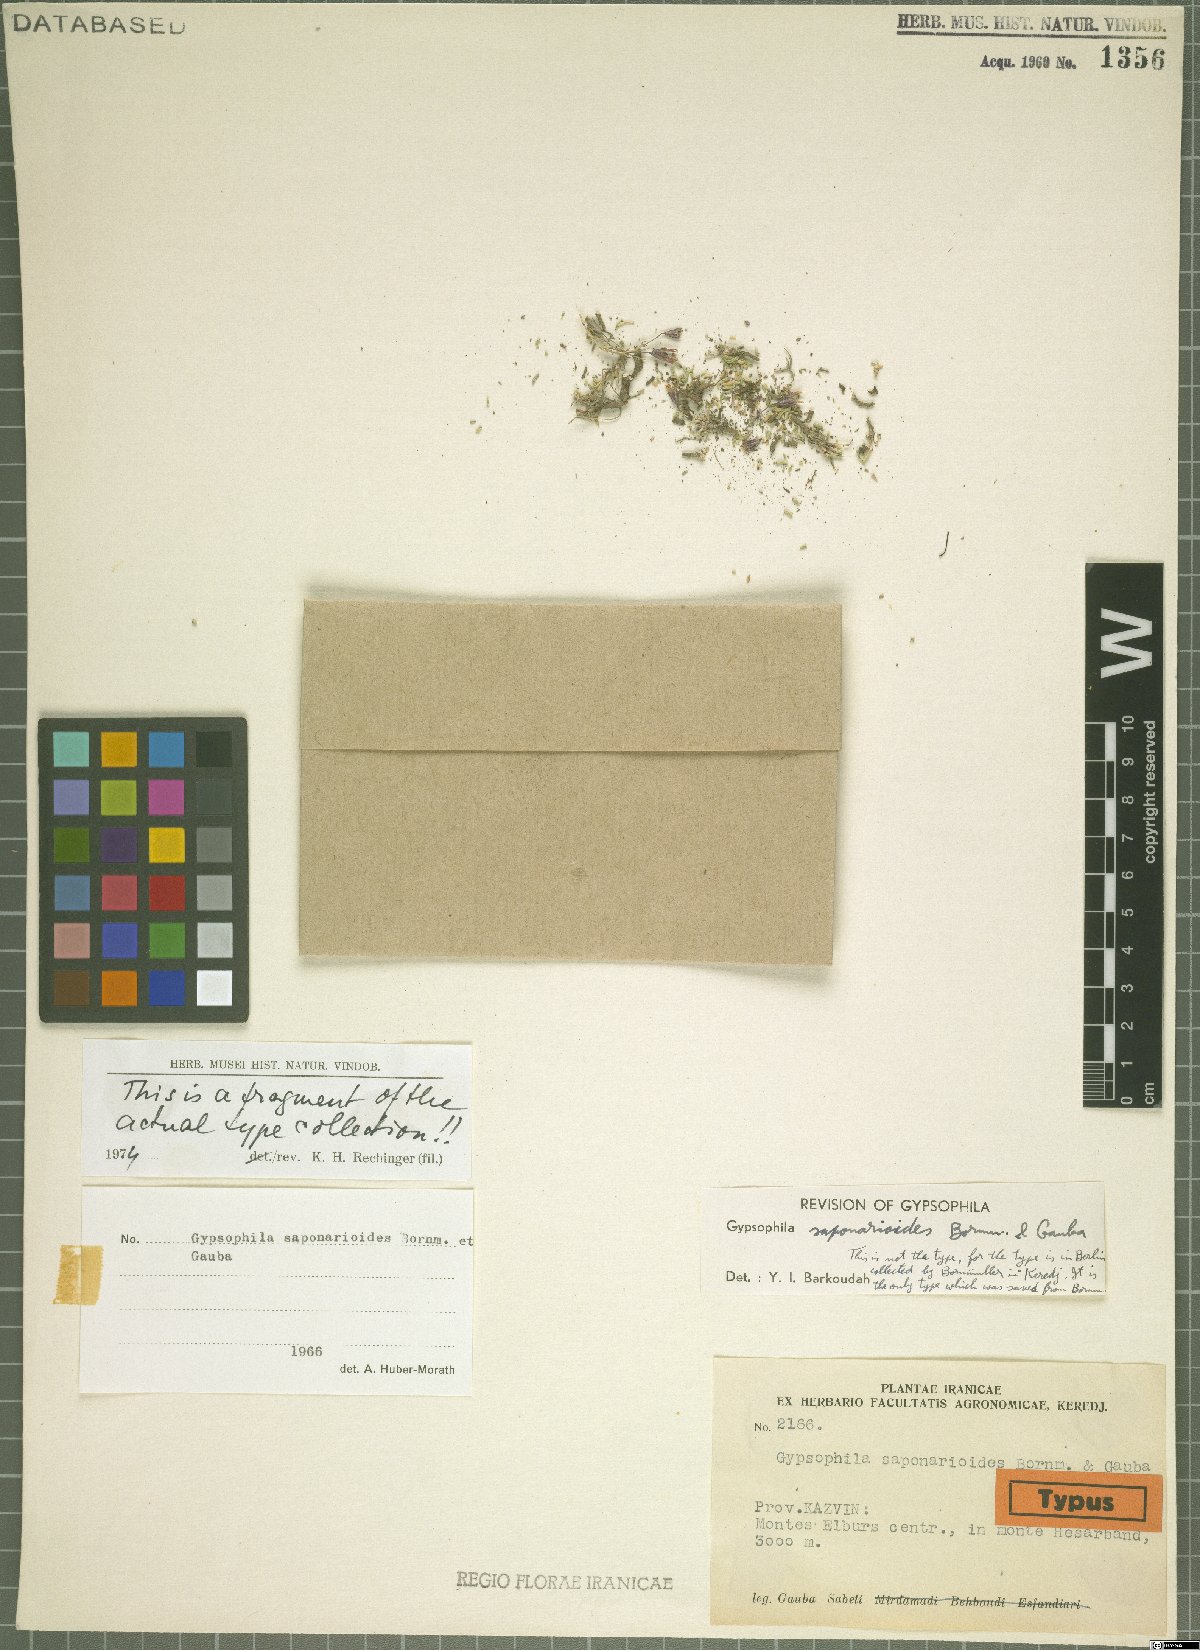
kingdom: Plantae
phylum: Tracheophyta
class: Magnoliopsida
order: Caryophyllales
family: Caryophyllaceae
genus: Gypsophila
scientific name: Gypsophila saponarioides
